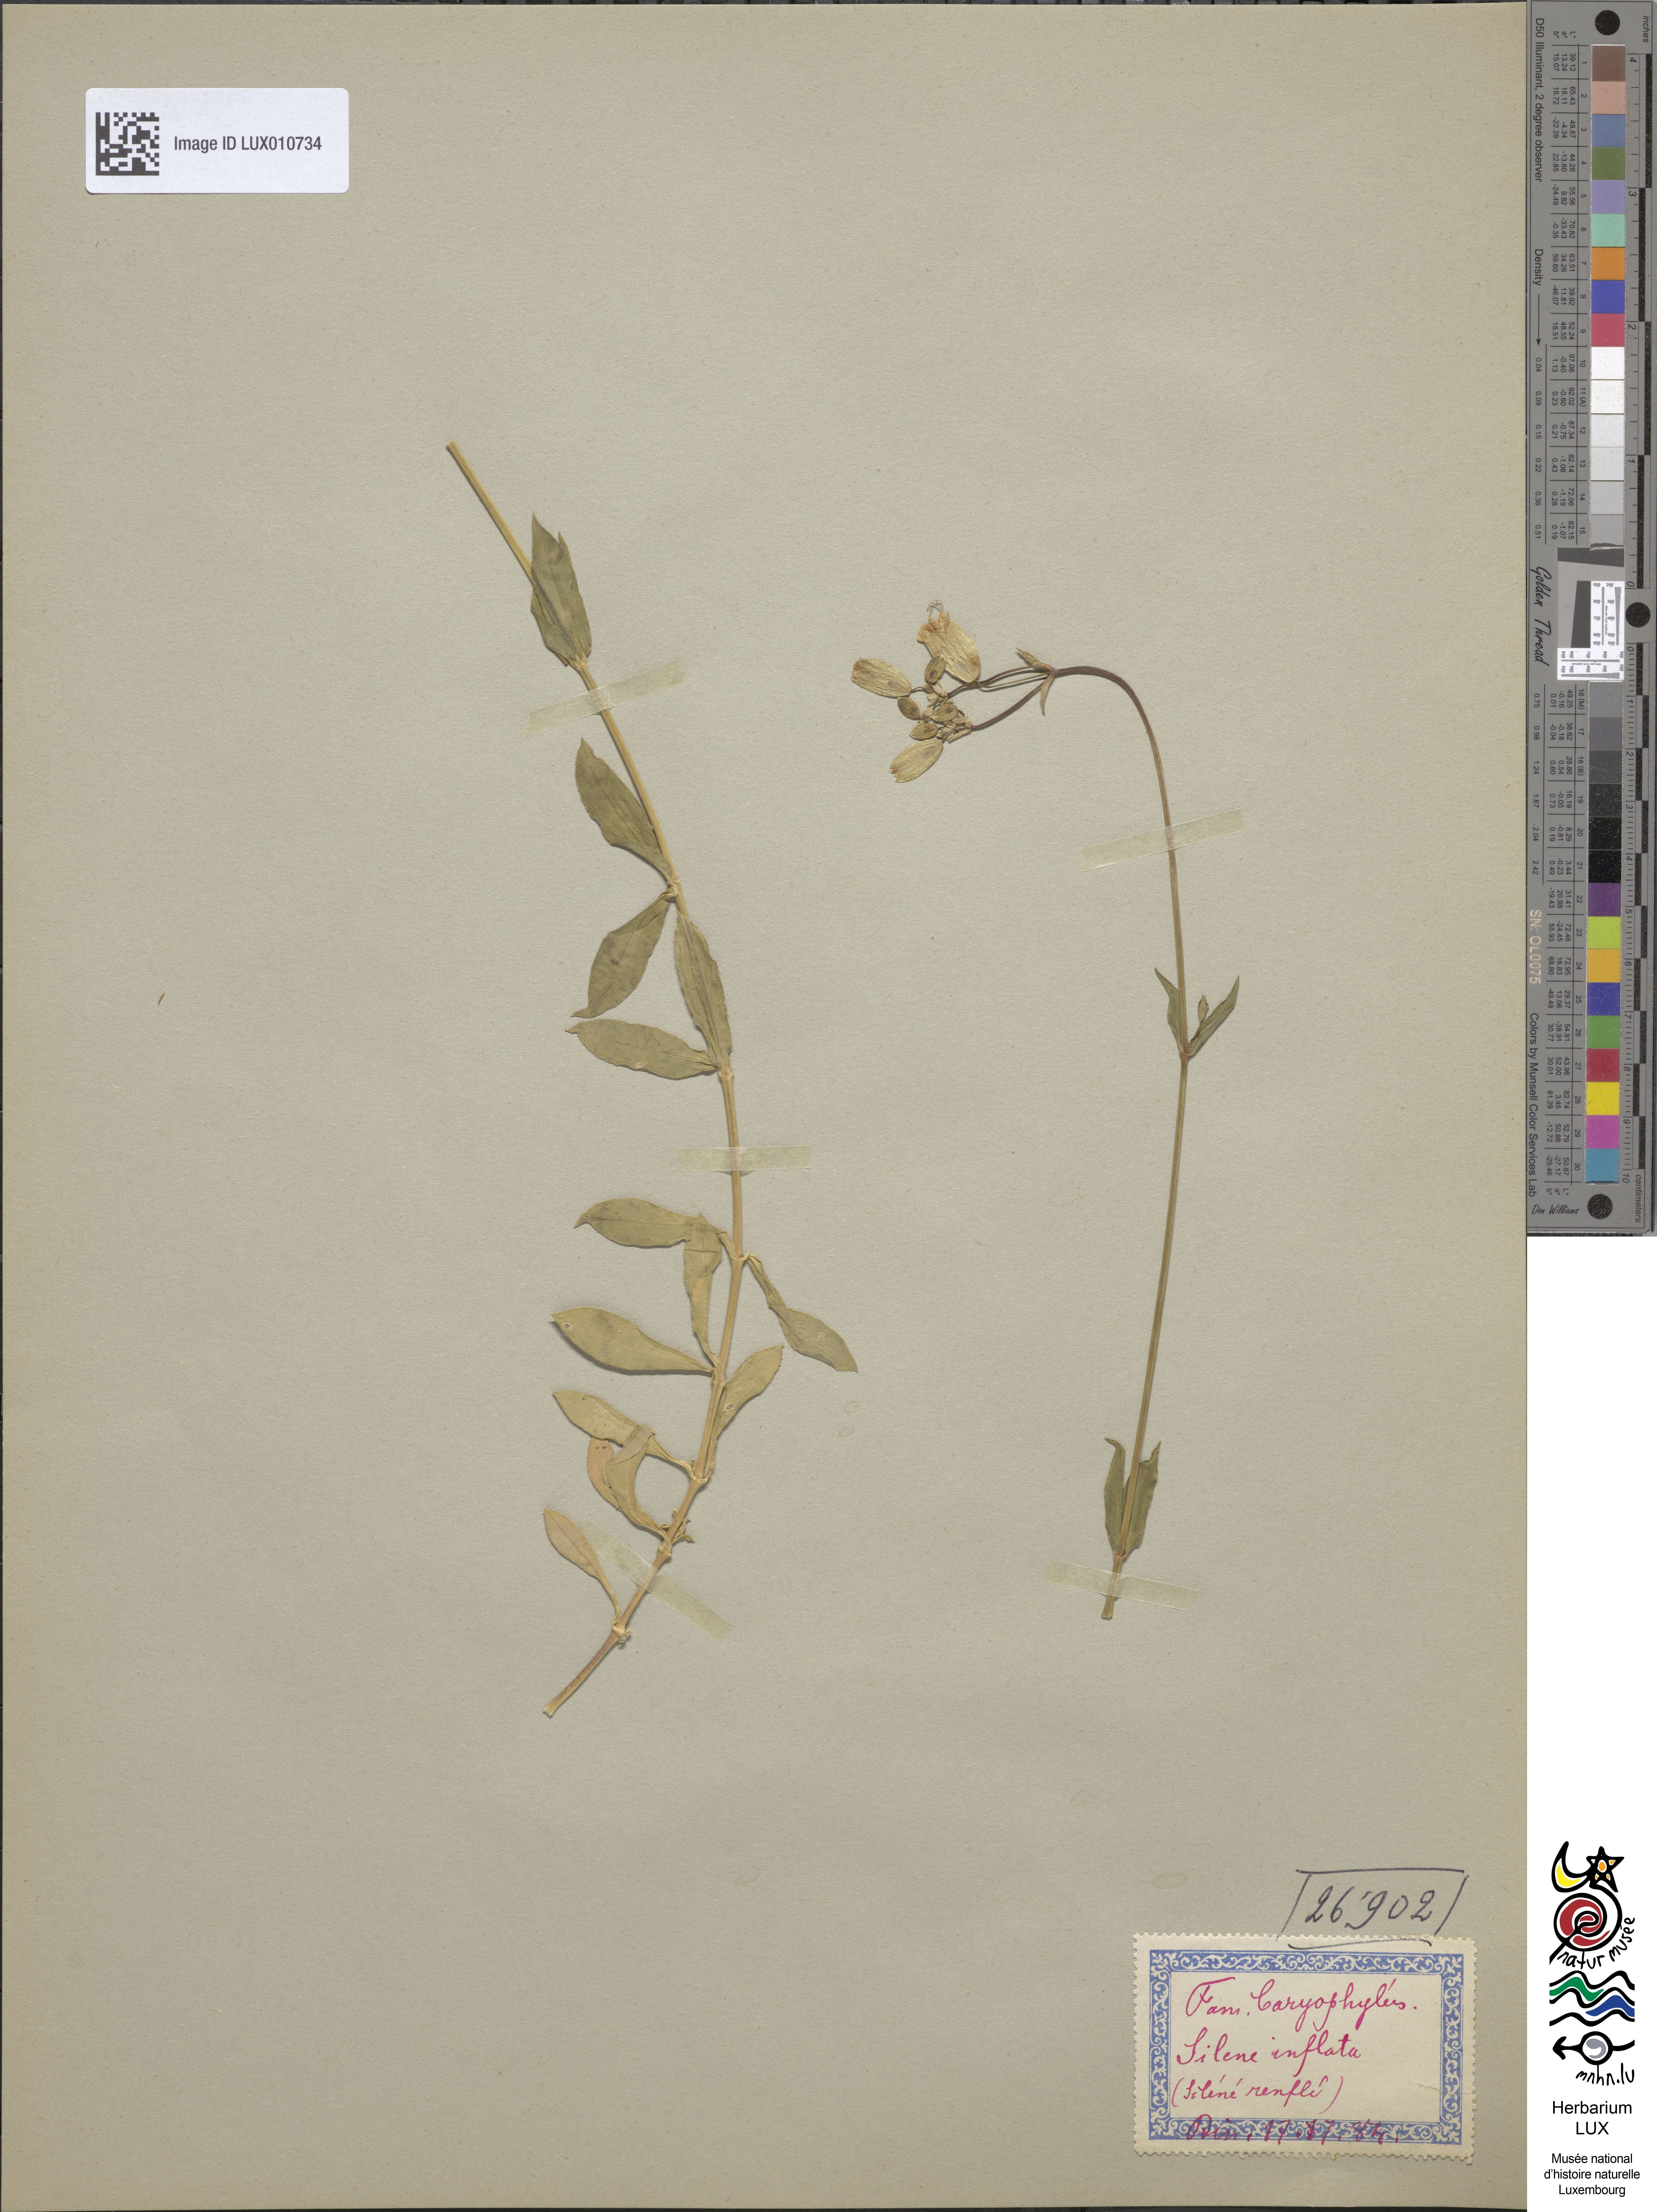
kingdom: Plantae
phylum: Tracheophyta
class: Magnoliopsida
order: Caryophyllales
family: Caryophyllaceae
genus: Silene
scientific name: Silene vulgaris
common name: Bladder campion
